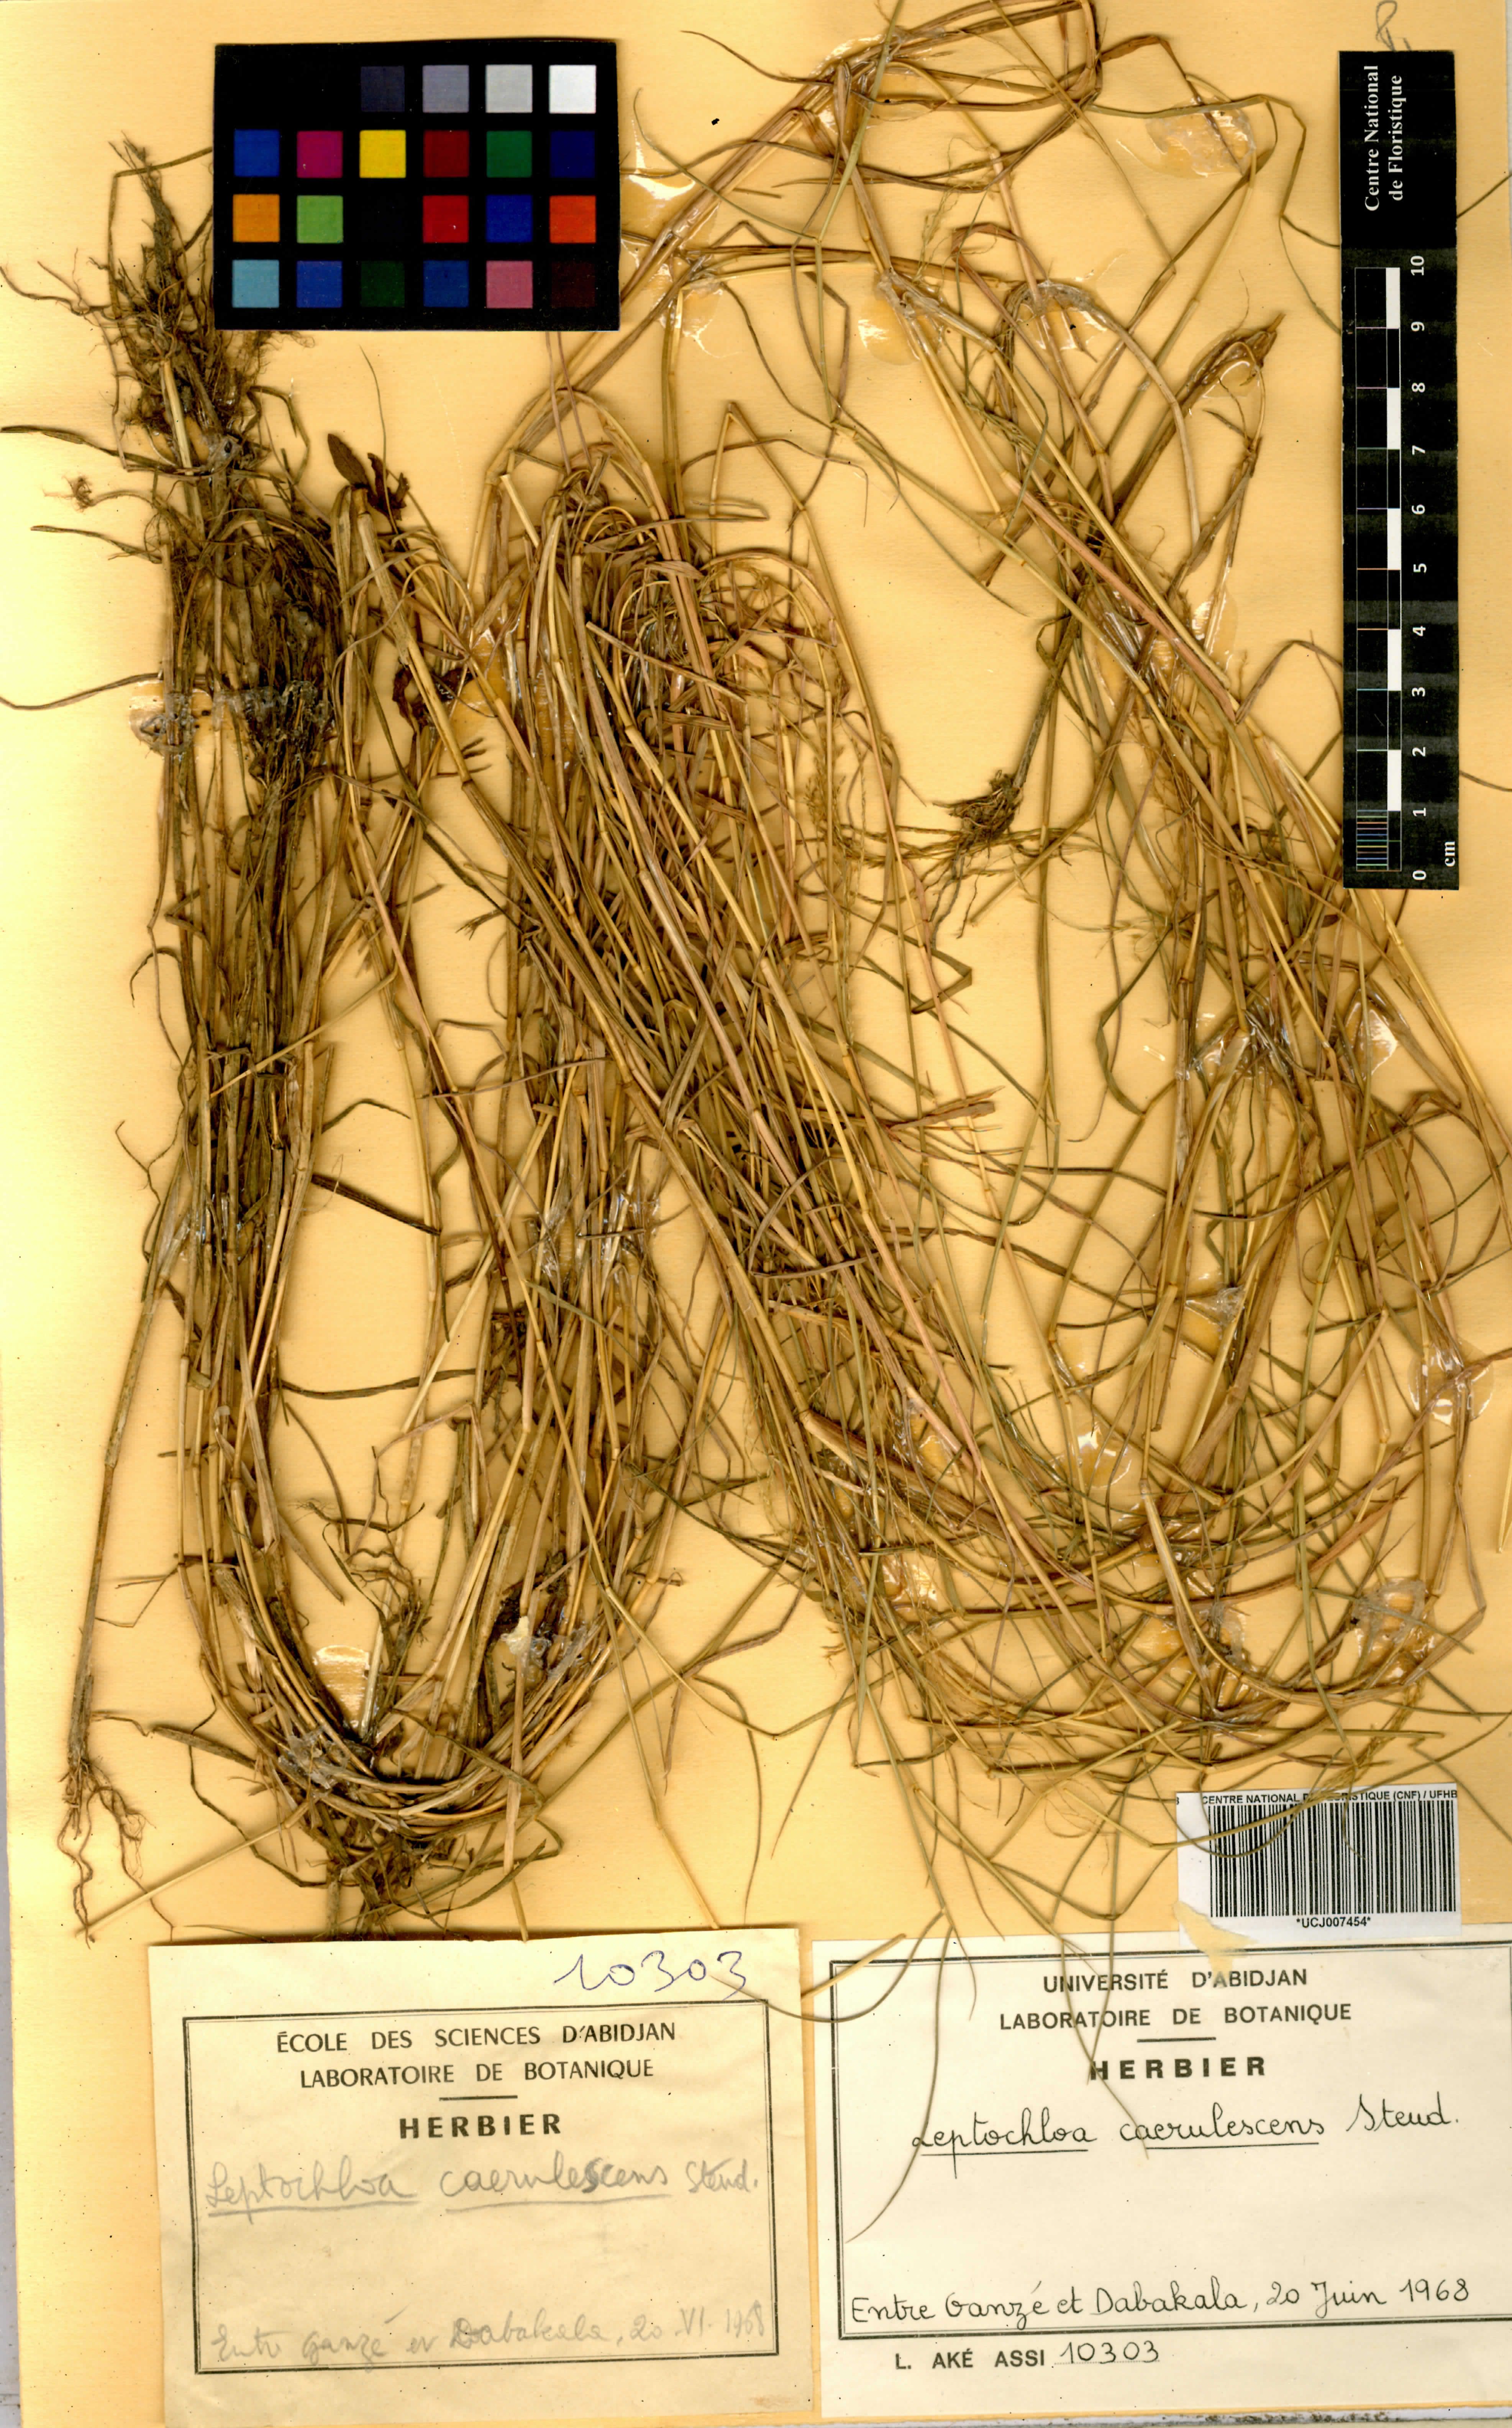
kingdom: Plantae
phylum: Tracheophyta
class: Liliopsida
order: Poales
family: Poaceae
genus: Leptochloa
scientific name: Leptochloa caerulescens
